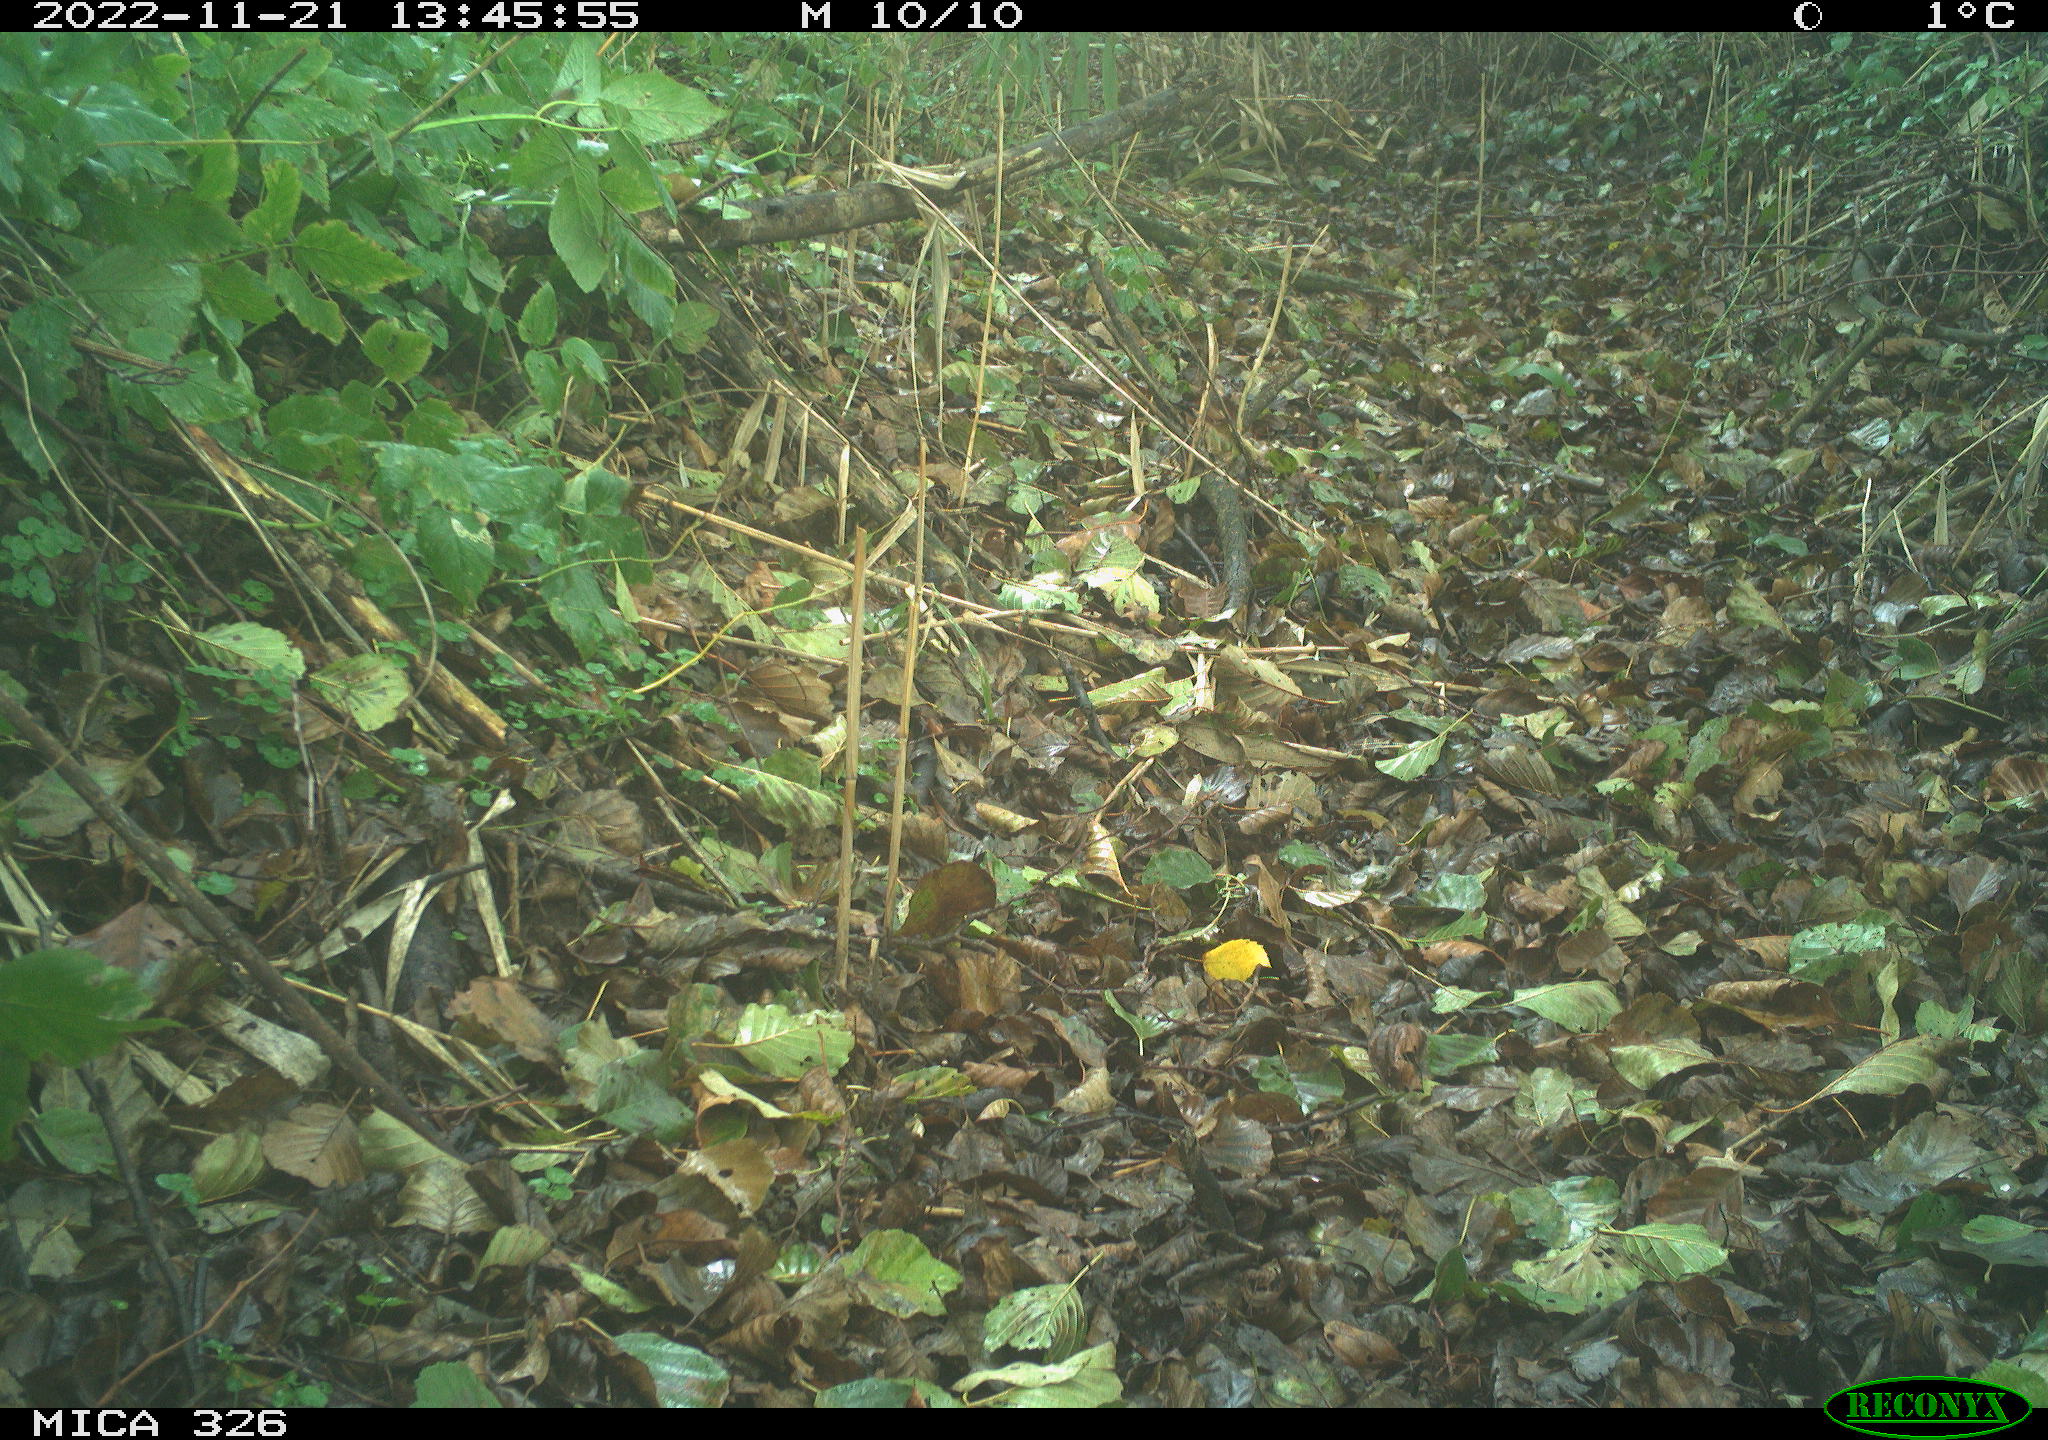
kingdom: Animalia
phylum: Chordata
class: Aves
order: Charadriiformes
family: Scolopacidae
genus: Tringa
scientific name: Tringa ochropus
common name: Green sandpiper
